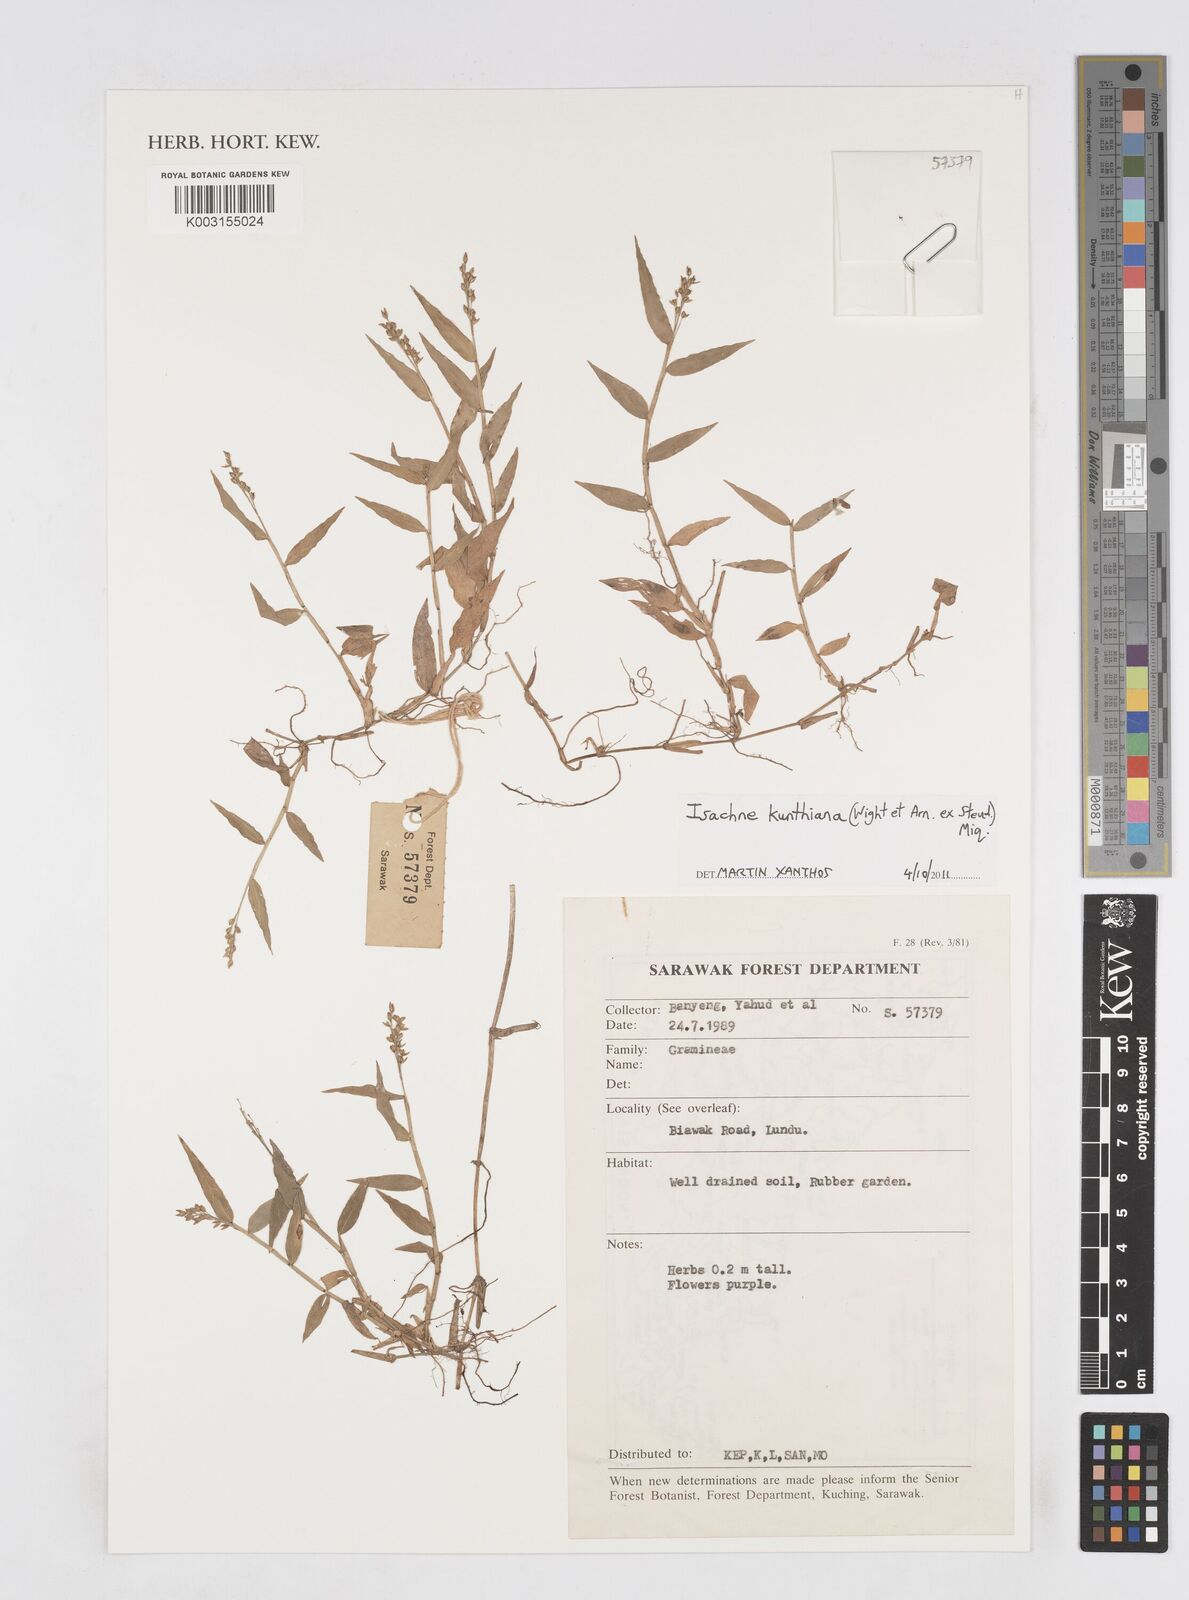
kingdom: Plantae
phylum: Tracheophyta
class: Liliopsida
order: Poales
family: Poaceae
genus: Isachne
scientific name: Isachne kunthiana
